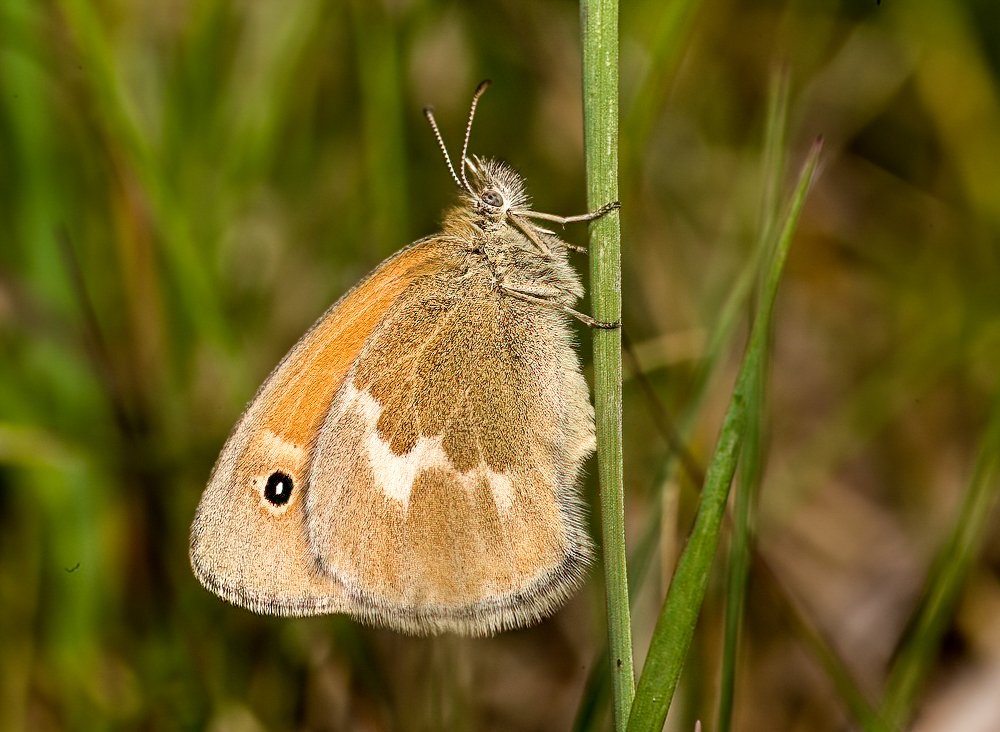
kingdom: Animalia
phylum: Arthropoda
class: Insecta
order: Lepidoptera
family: Nymphalidae
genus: Coenonympha
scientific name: Coenonympha tullia
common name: Large Heath
